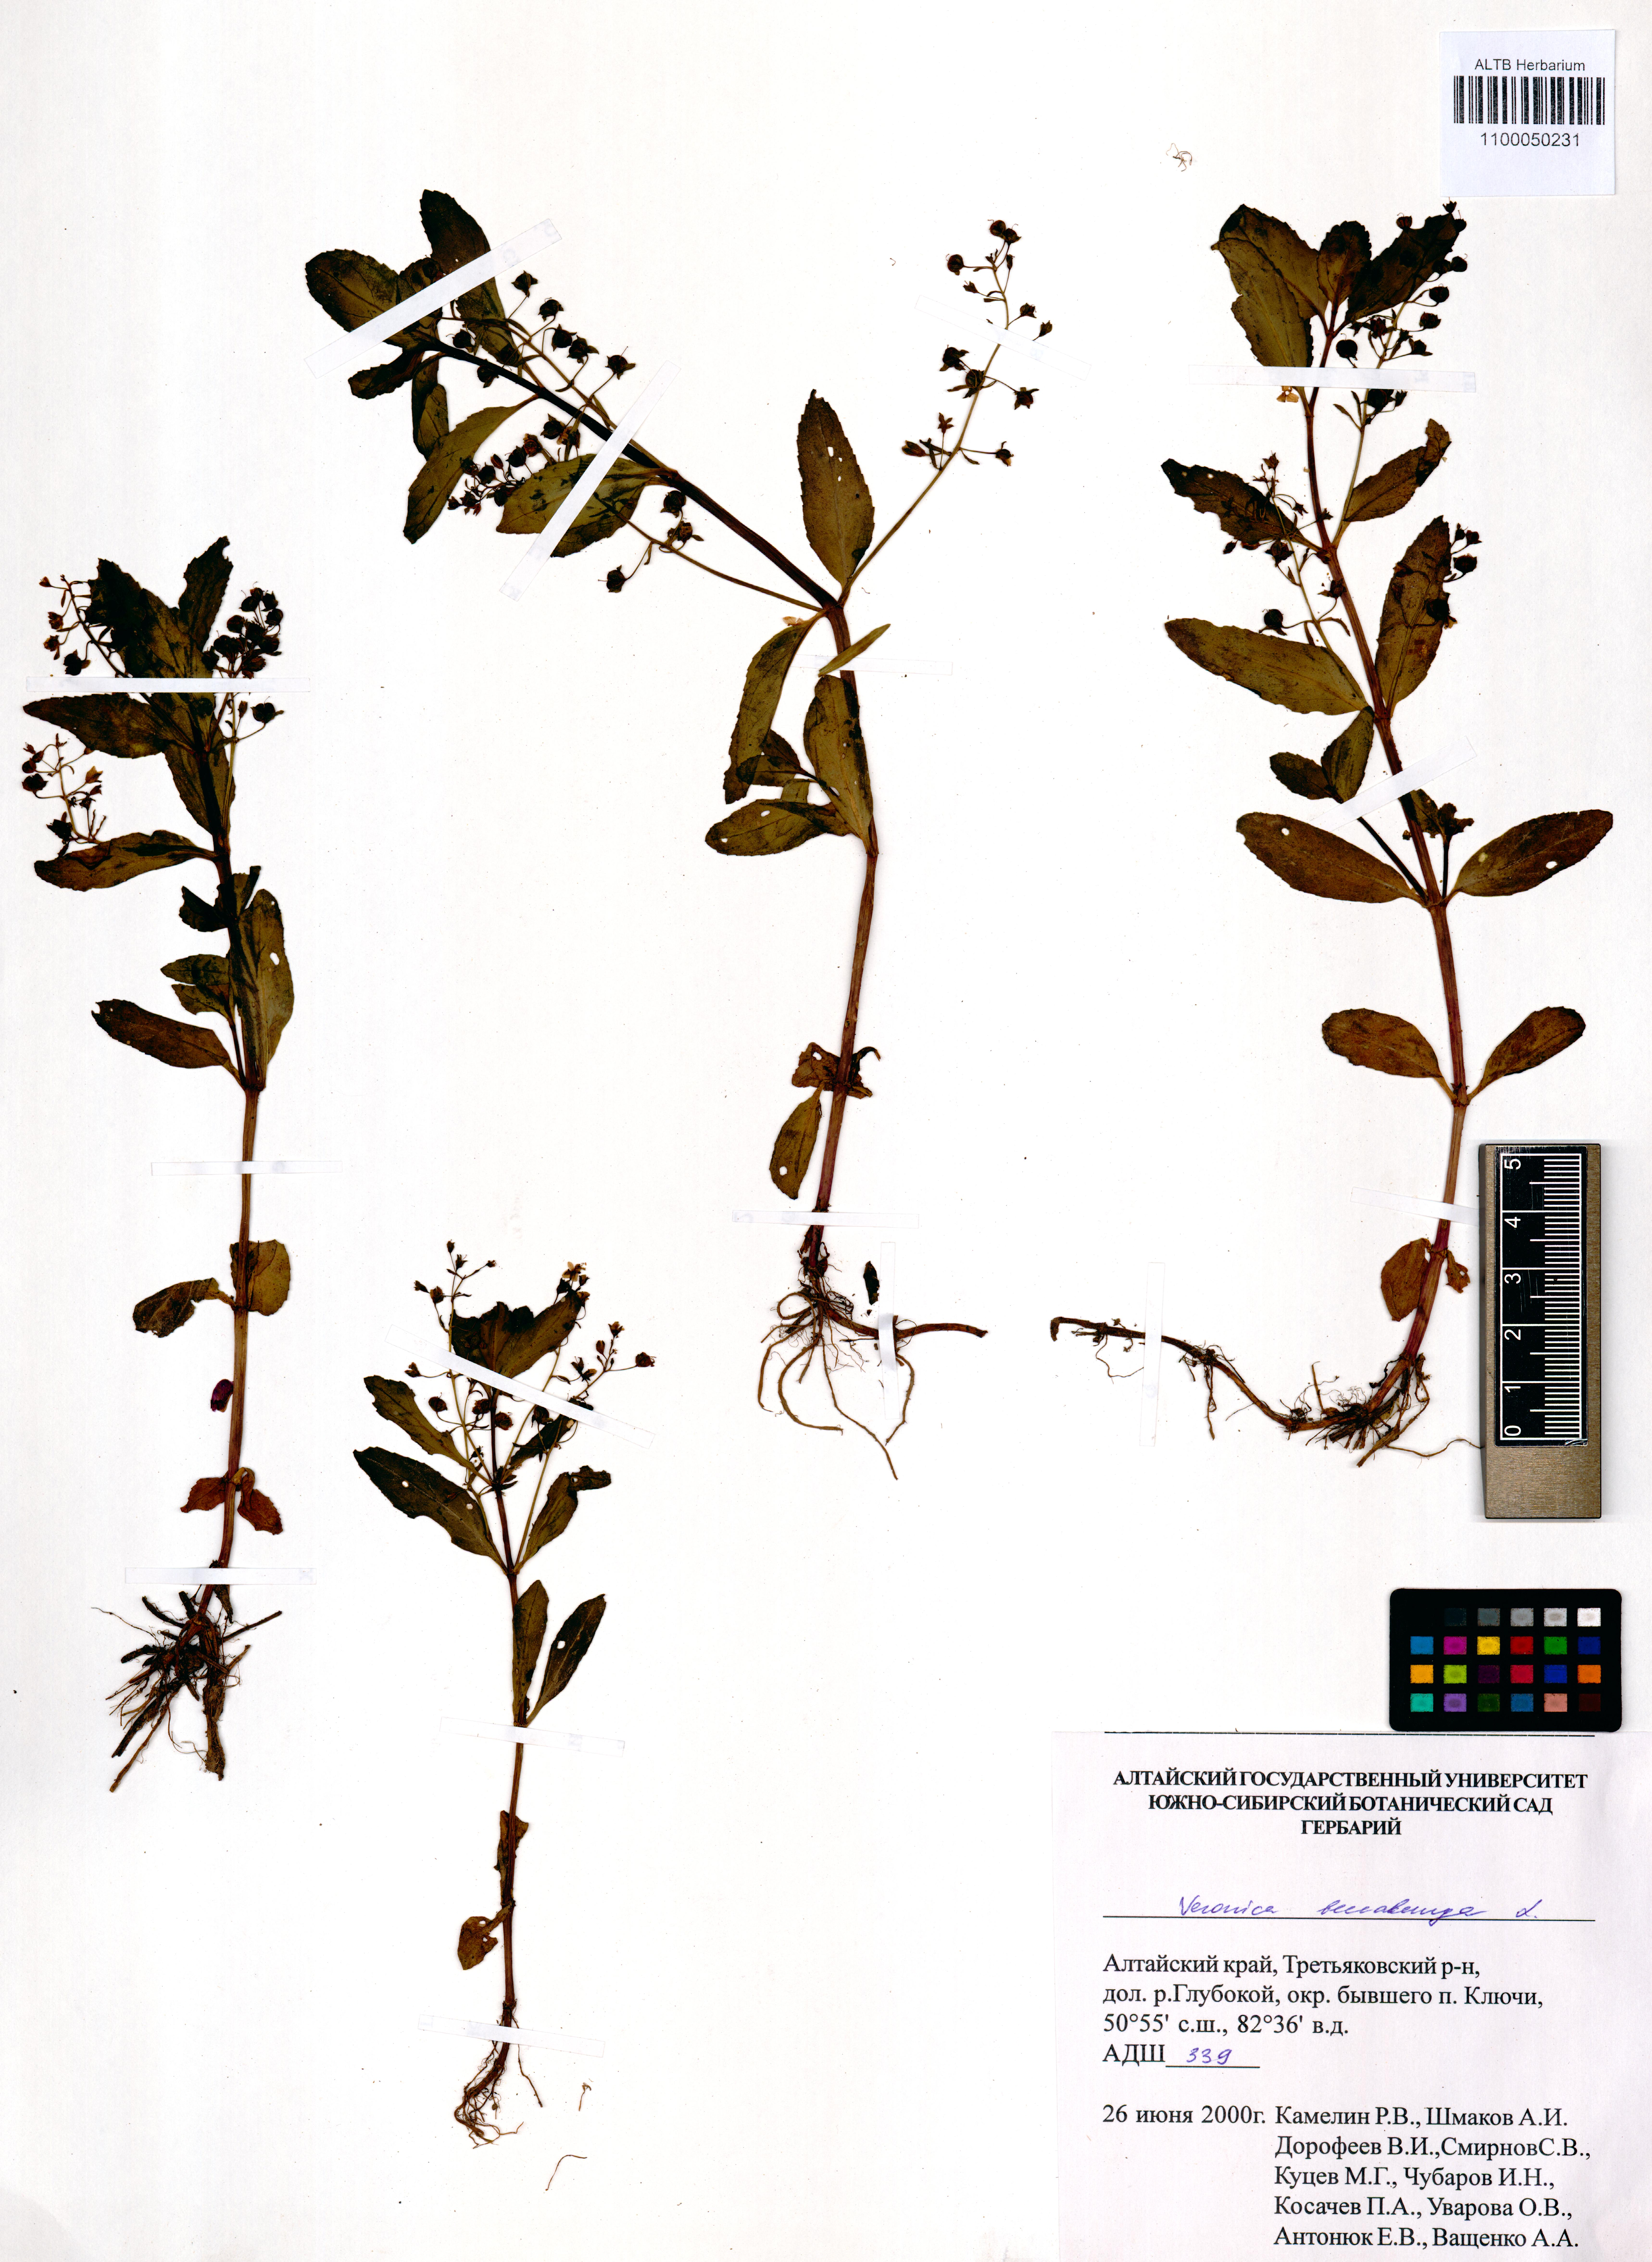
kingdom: Plantae
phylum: Tracheophyta
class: Magnoliopsida
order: Lamiales
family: Plantaginaceae
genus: Veronica
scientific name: Veronica beccabunga
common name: Brooklime
